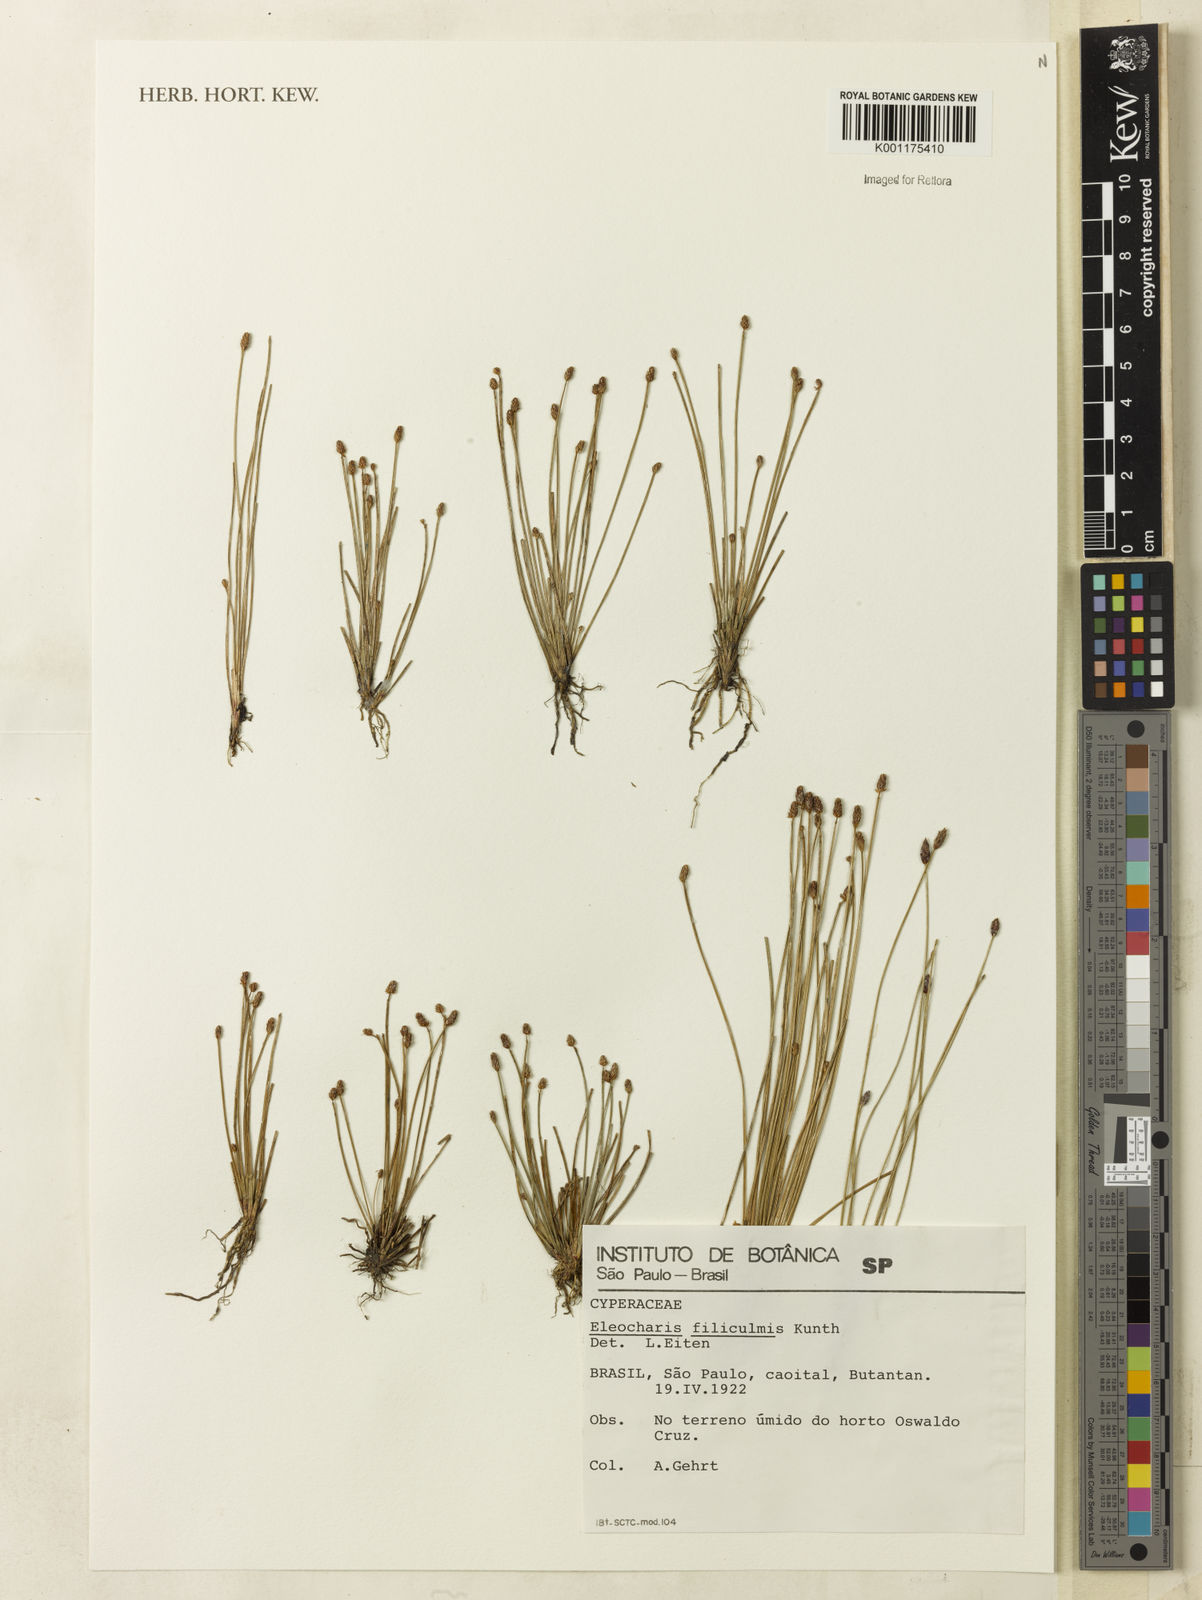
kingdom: Plantae
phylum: Tracheophyta
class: Liliopsida
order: Poales
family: Cyperaceae
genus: Eleocharis
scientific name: Eleocharis filiculmis
